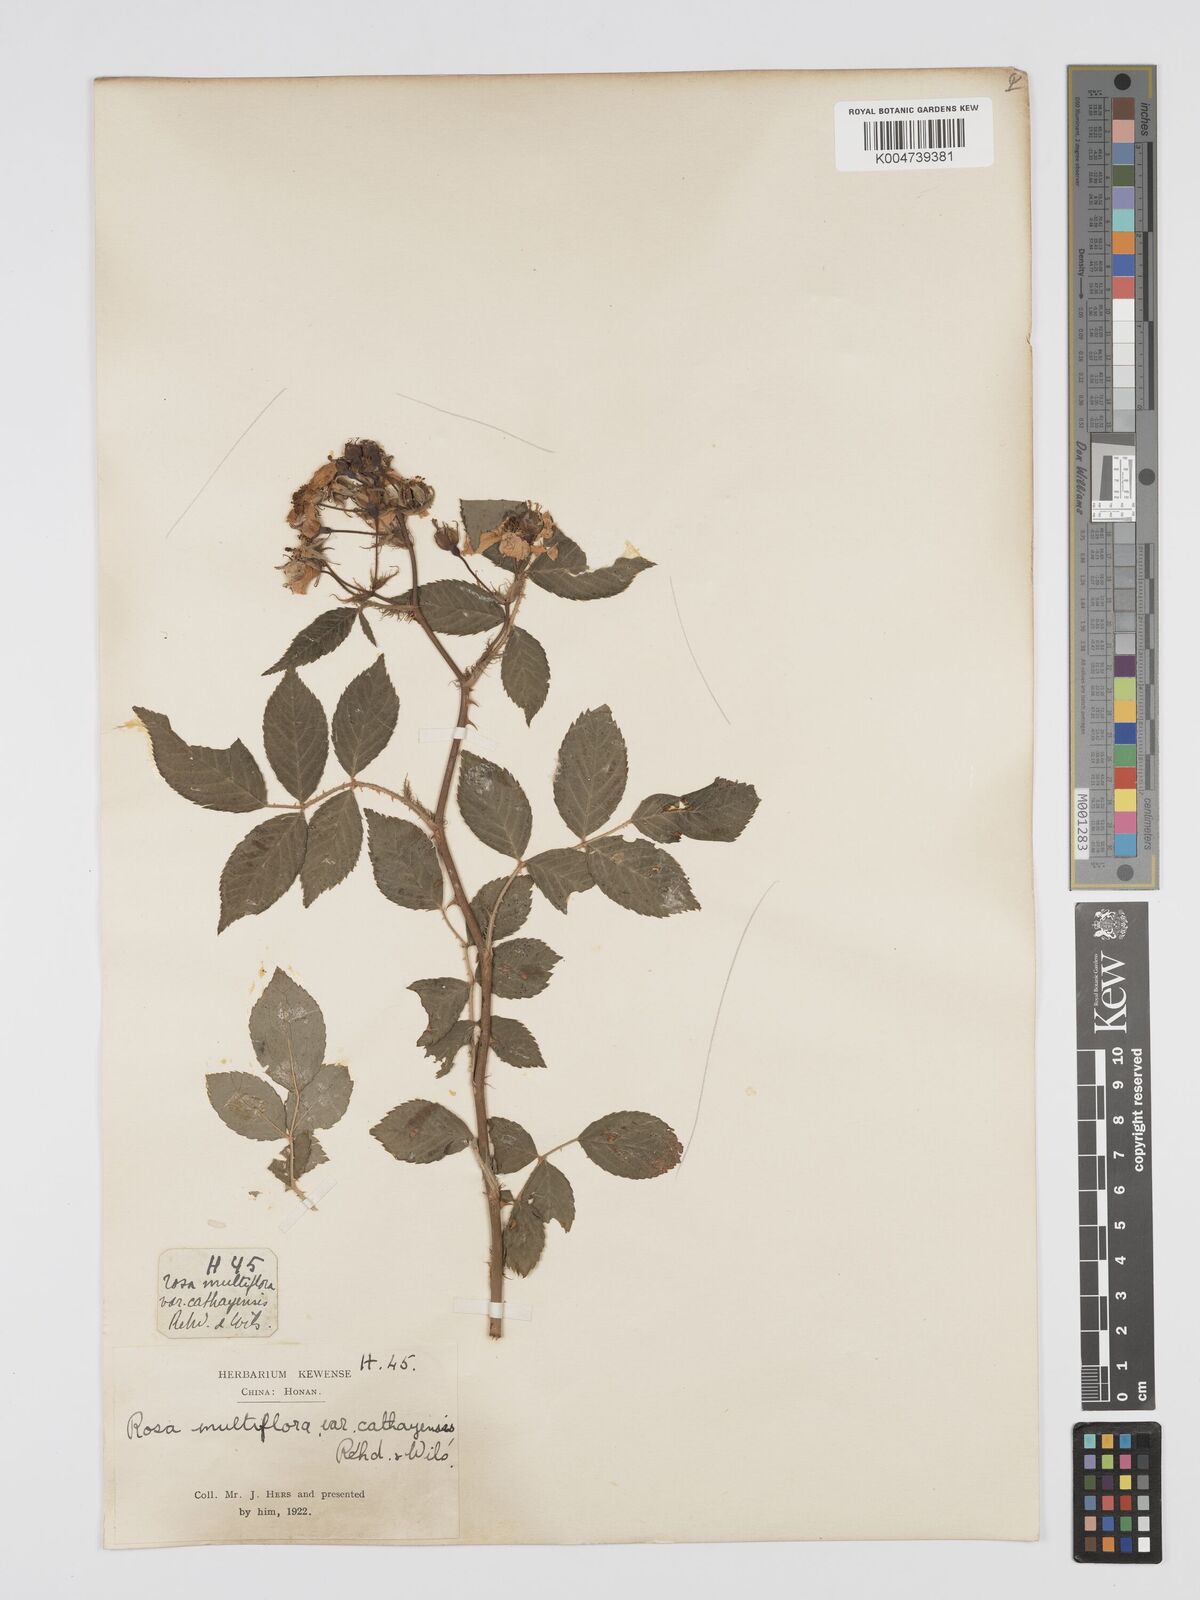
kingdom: Plantae
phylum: Tracheophyta
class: Magnoliopsida
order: Rosales
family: Rosaceae
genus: Rosa
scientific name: Rosa multiflora
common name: Multiflora rose
